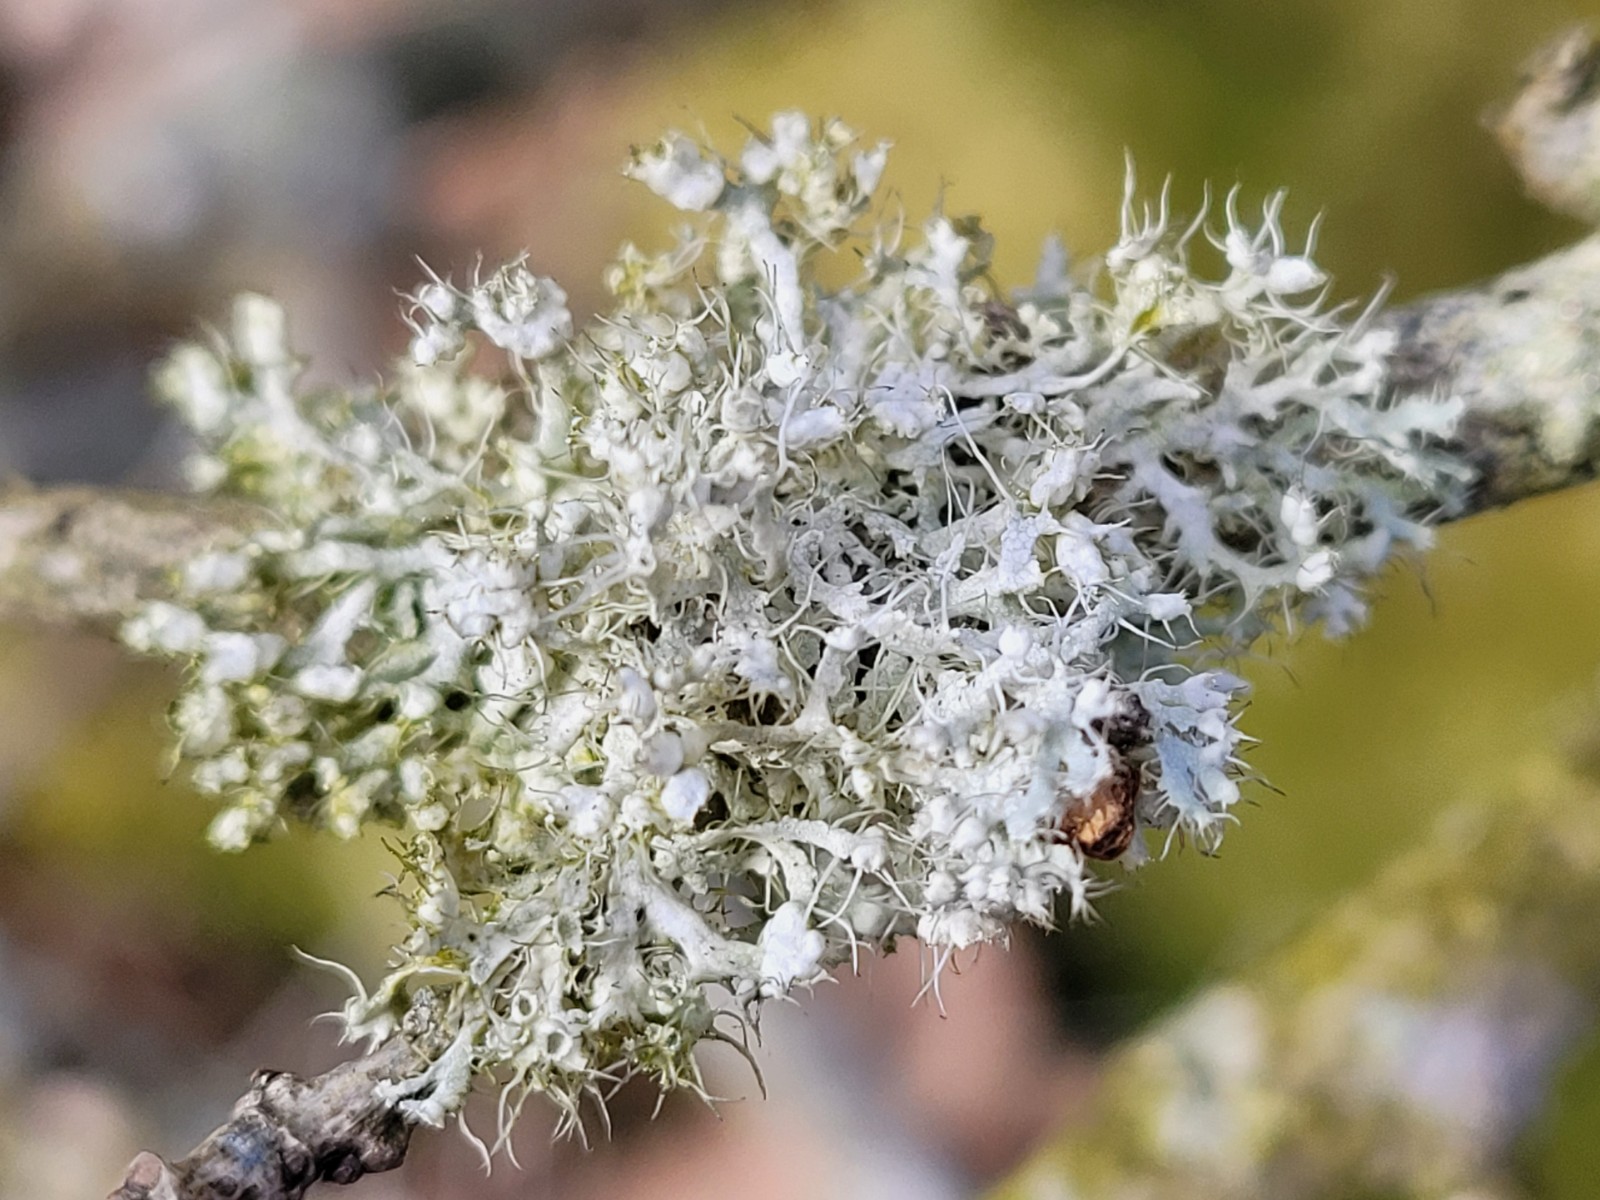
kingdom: Fungi
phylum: Ascomycota
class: Lecanoromycetes
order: Caliciales
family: Physciaceae
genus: Physcia
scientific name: Physcia adscendens
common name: hætte-rosetlav
